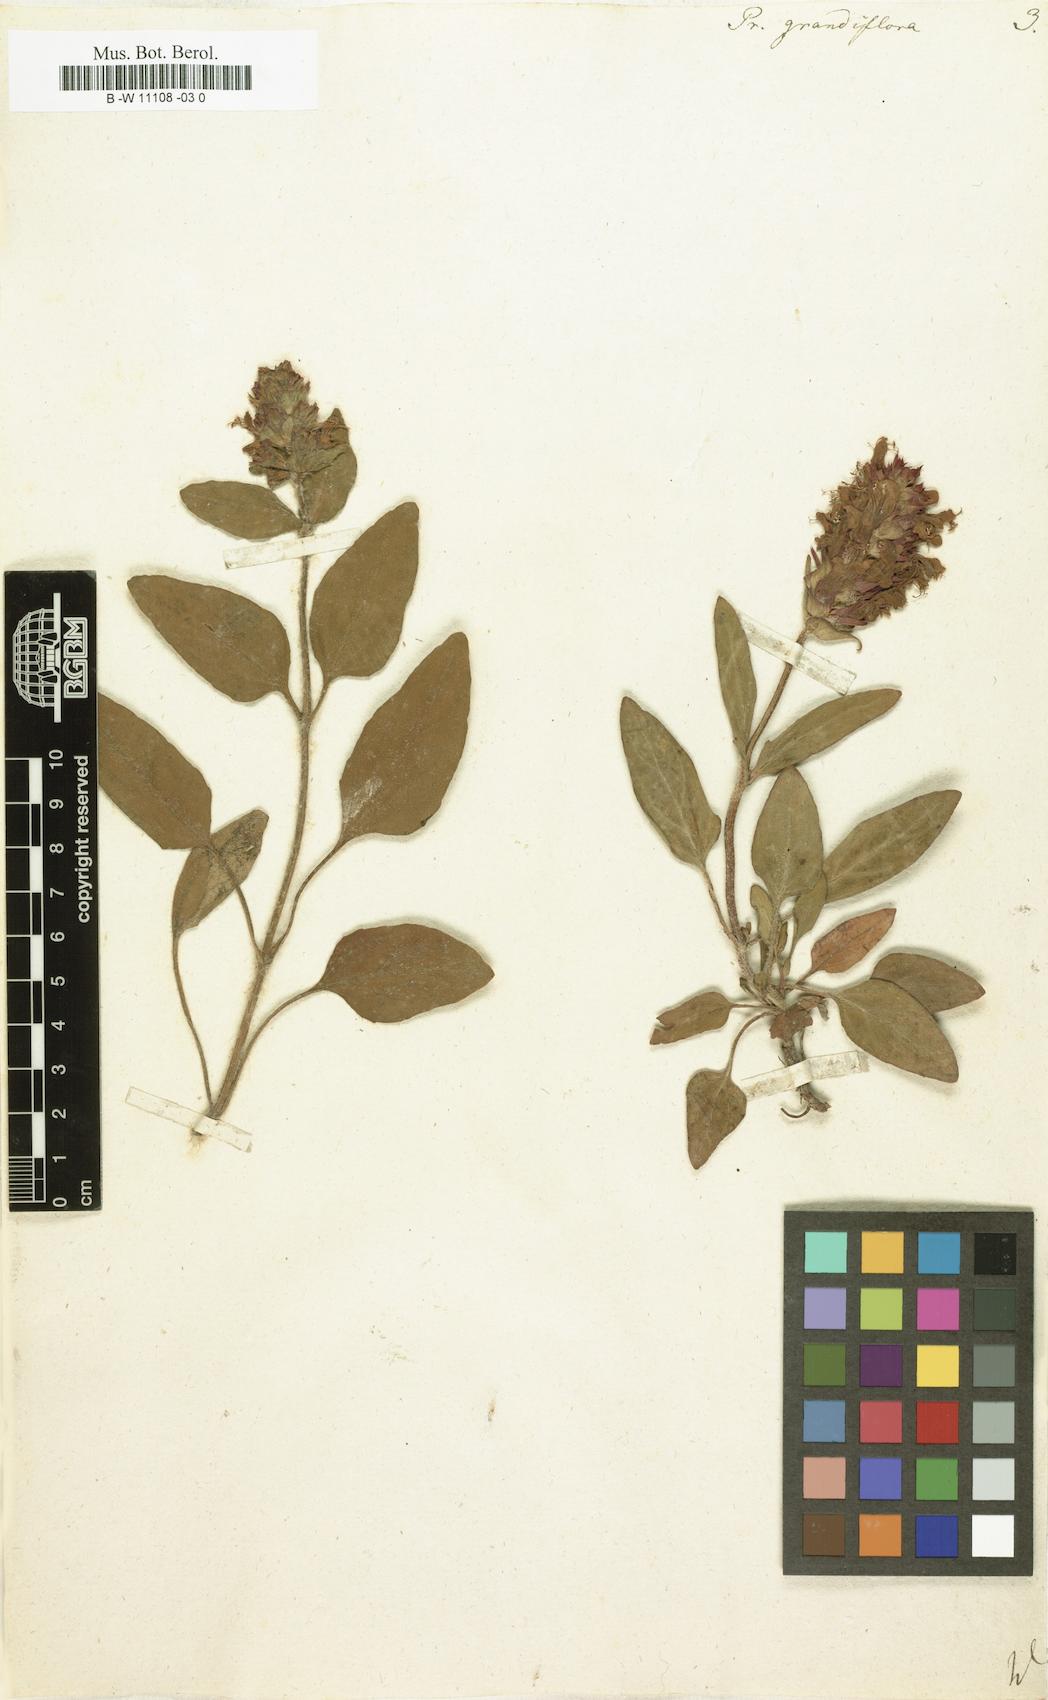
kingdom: Plantae
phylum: Tracheophyta
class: Magnoliopsida
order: Lamiales
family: Lamiaceae
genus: Prunella
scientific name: Prunella grandiflora
